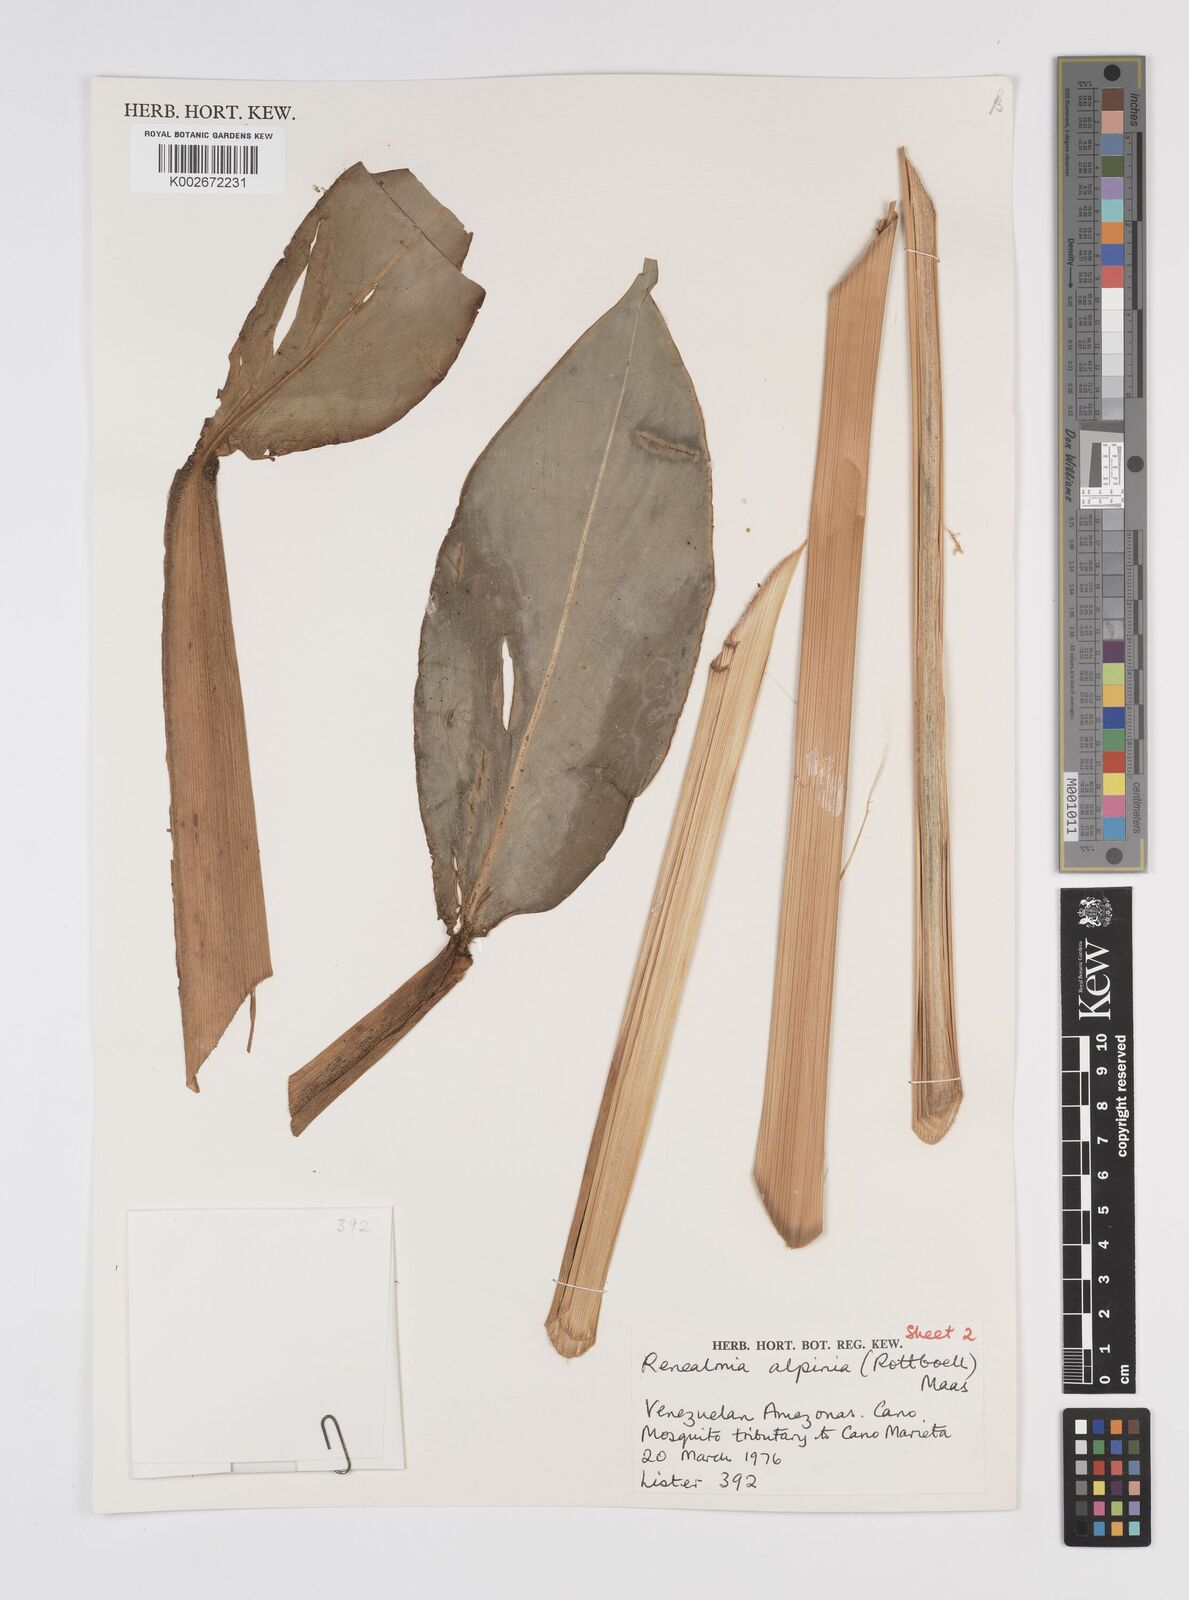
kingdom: Plantae
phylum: Tracheophyta
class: Liliopsida
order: Zingiberales
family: Zingiberaceae
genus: Renealmia
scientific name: Renealmia alpinia
